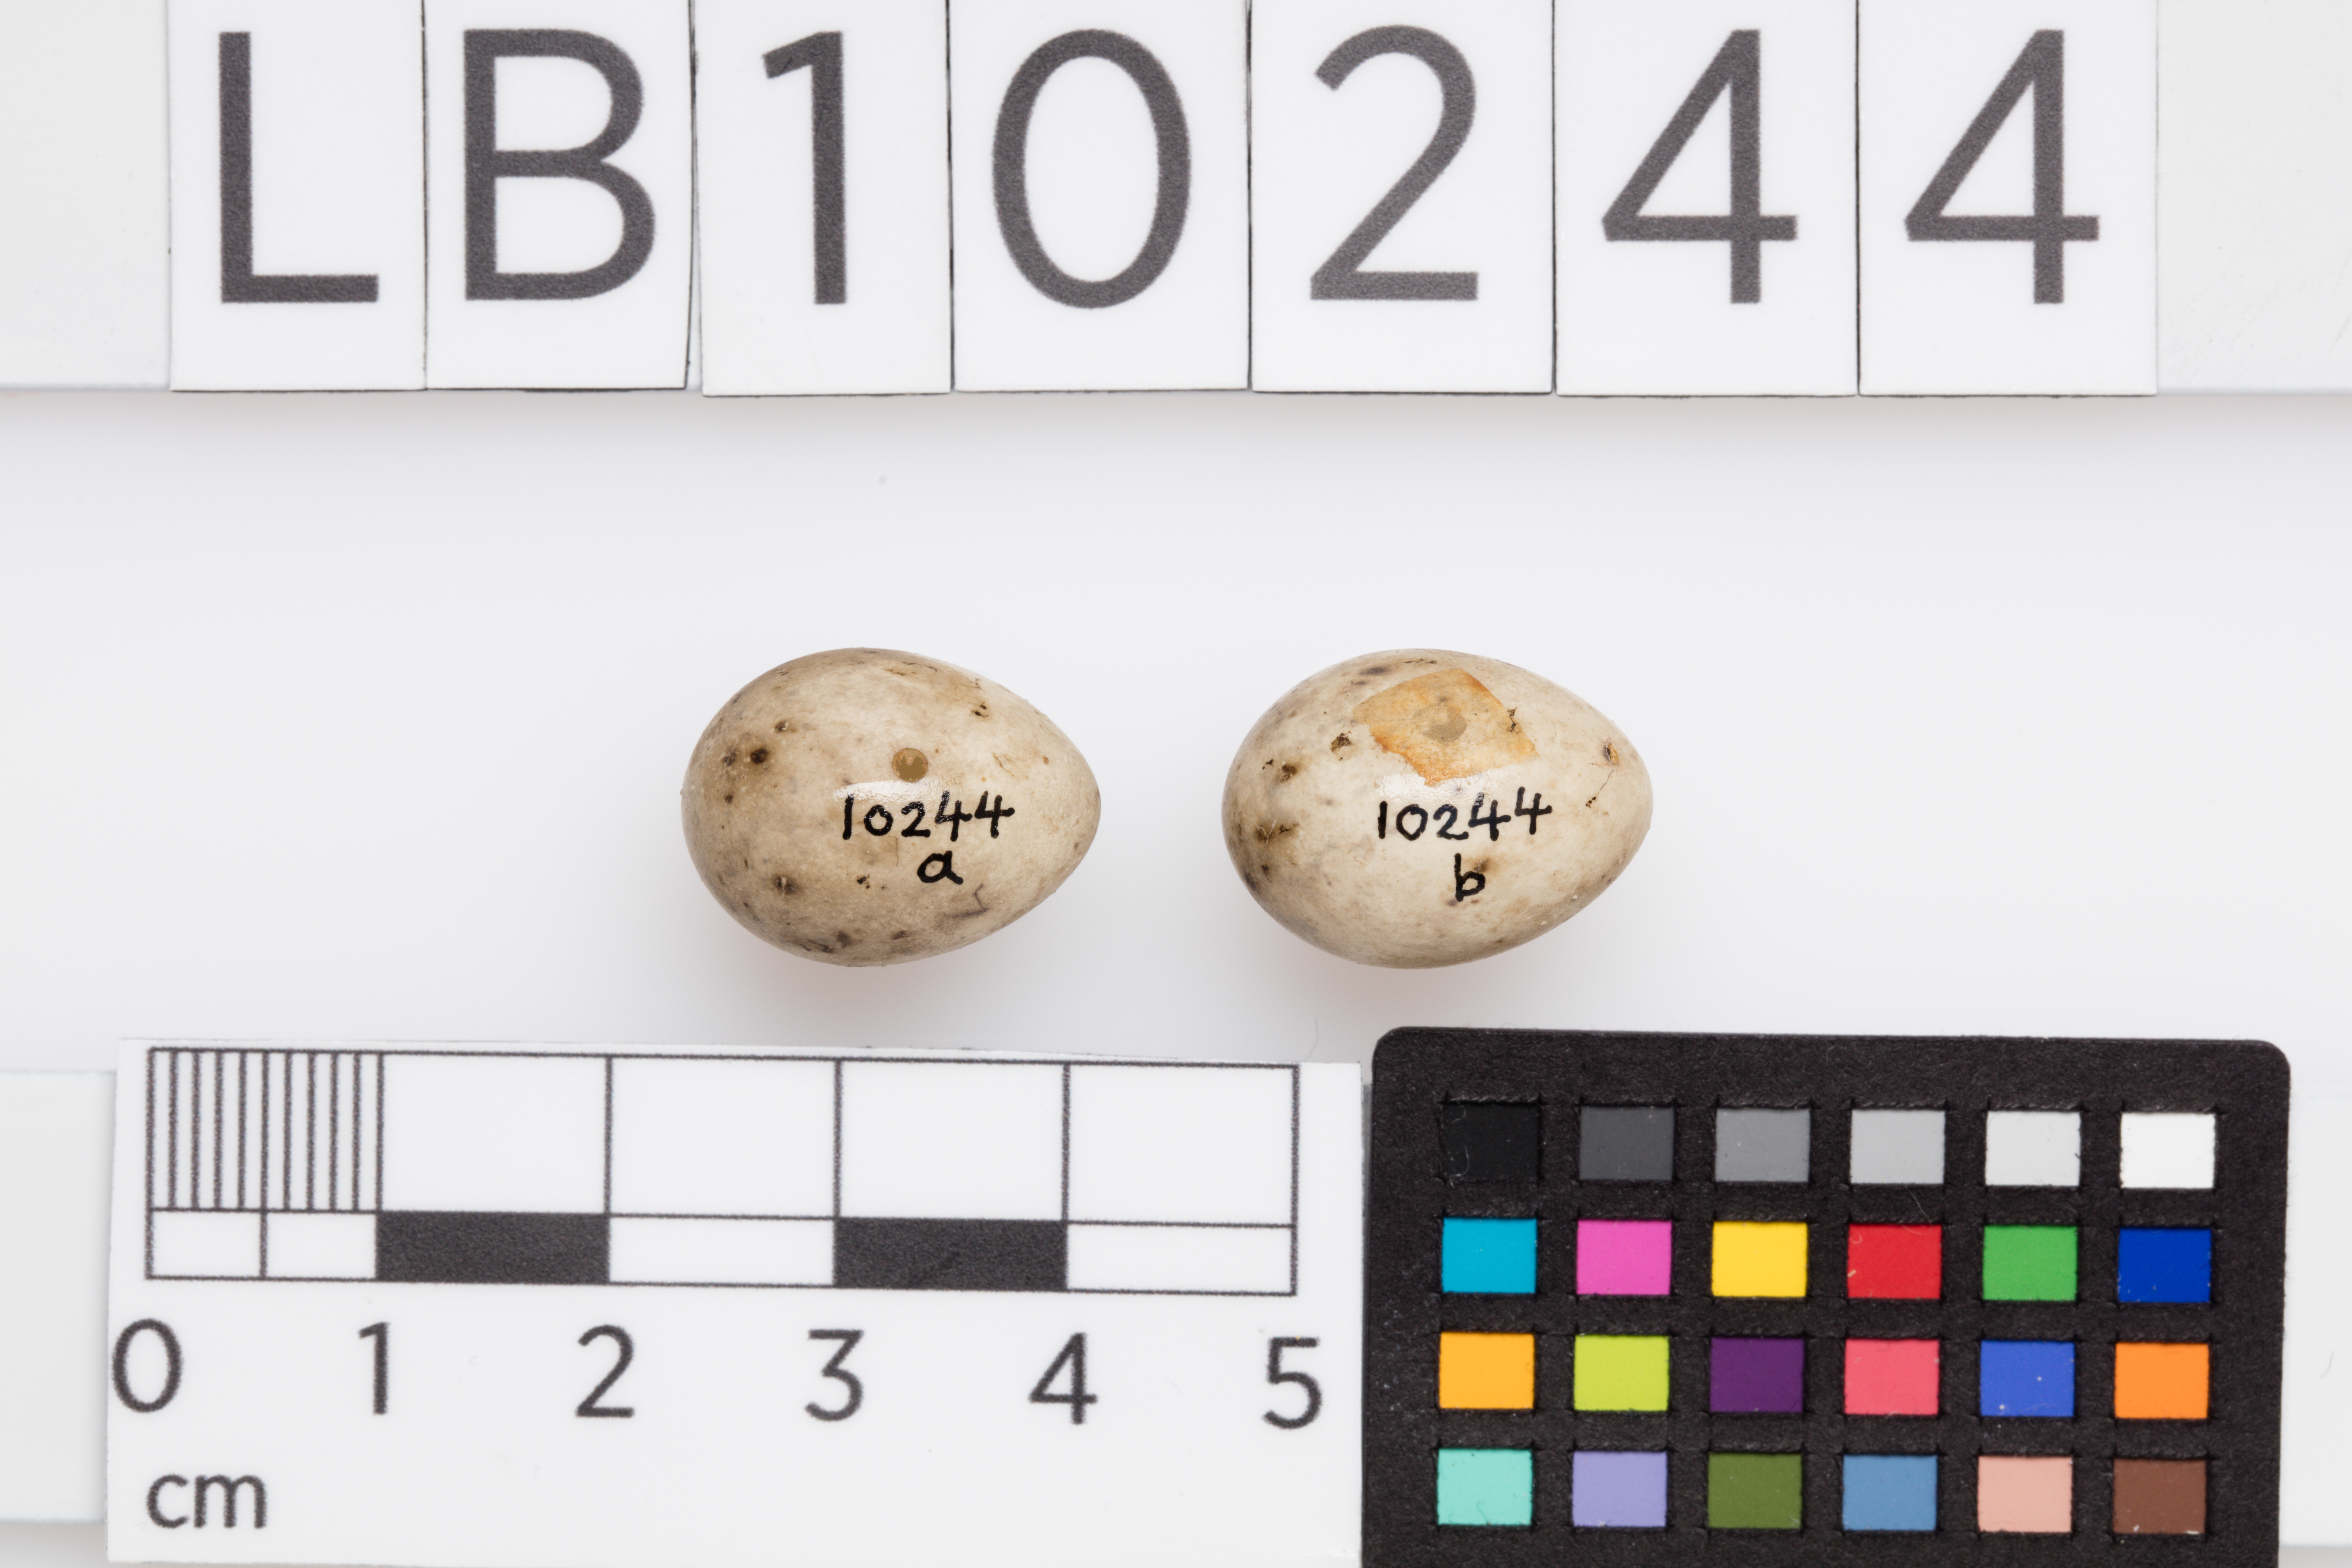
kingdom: Animalia
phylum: Chordata
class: Aves
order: Passeriformes
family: Sylviidae
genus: Sylvia
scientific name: Sylvia curruca
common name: Lesser whitethroat
